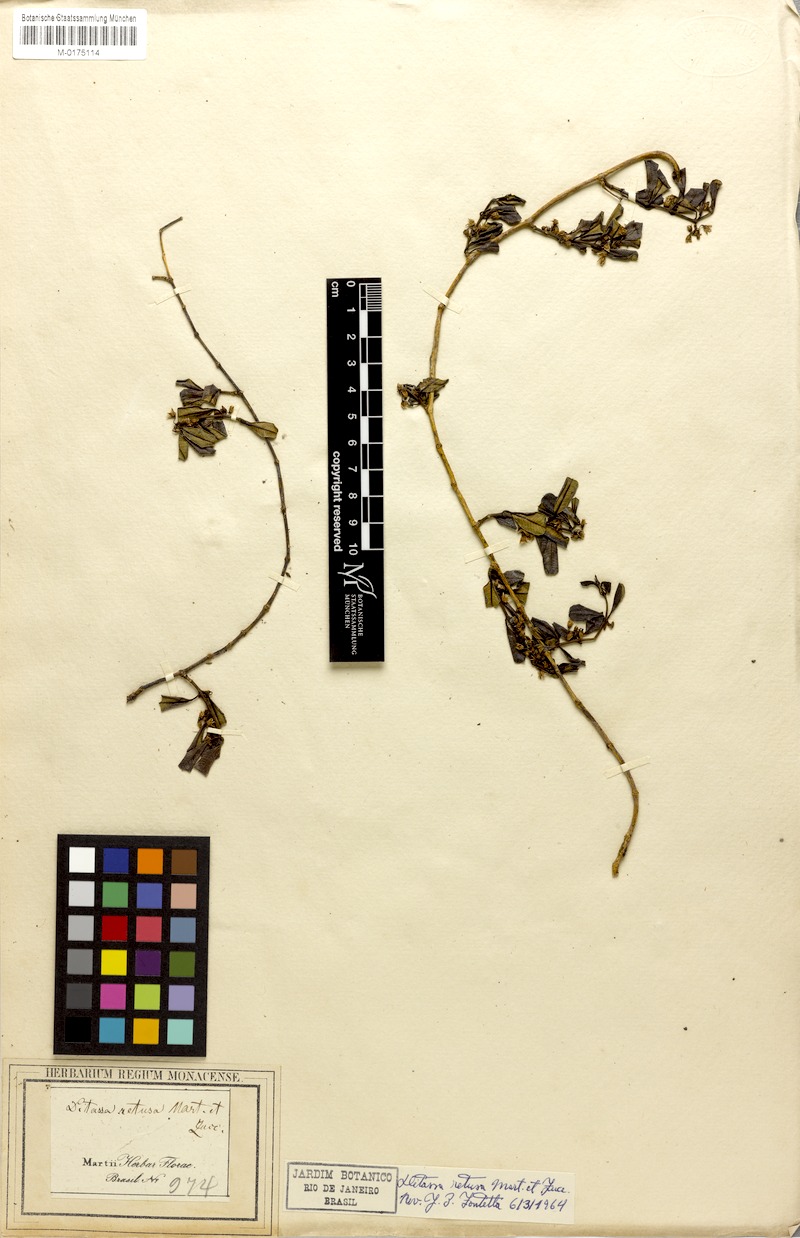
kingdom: Plantae
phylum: Tracheophyta
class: Magnoliopsida
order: Gentianales
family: Apocynaceae
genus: Ditassa
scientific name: Ditassa retusa
